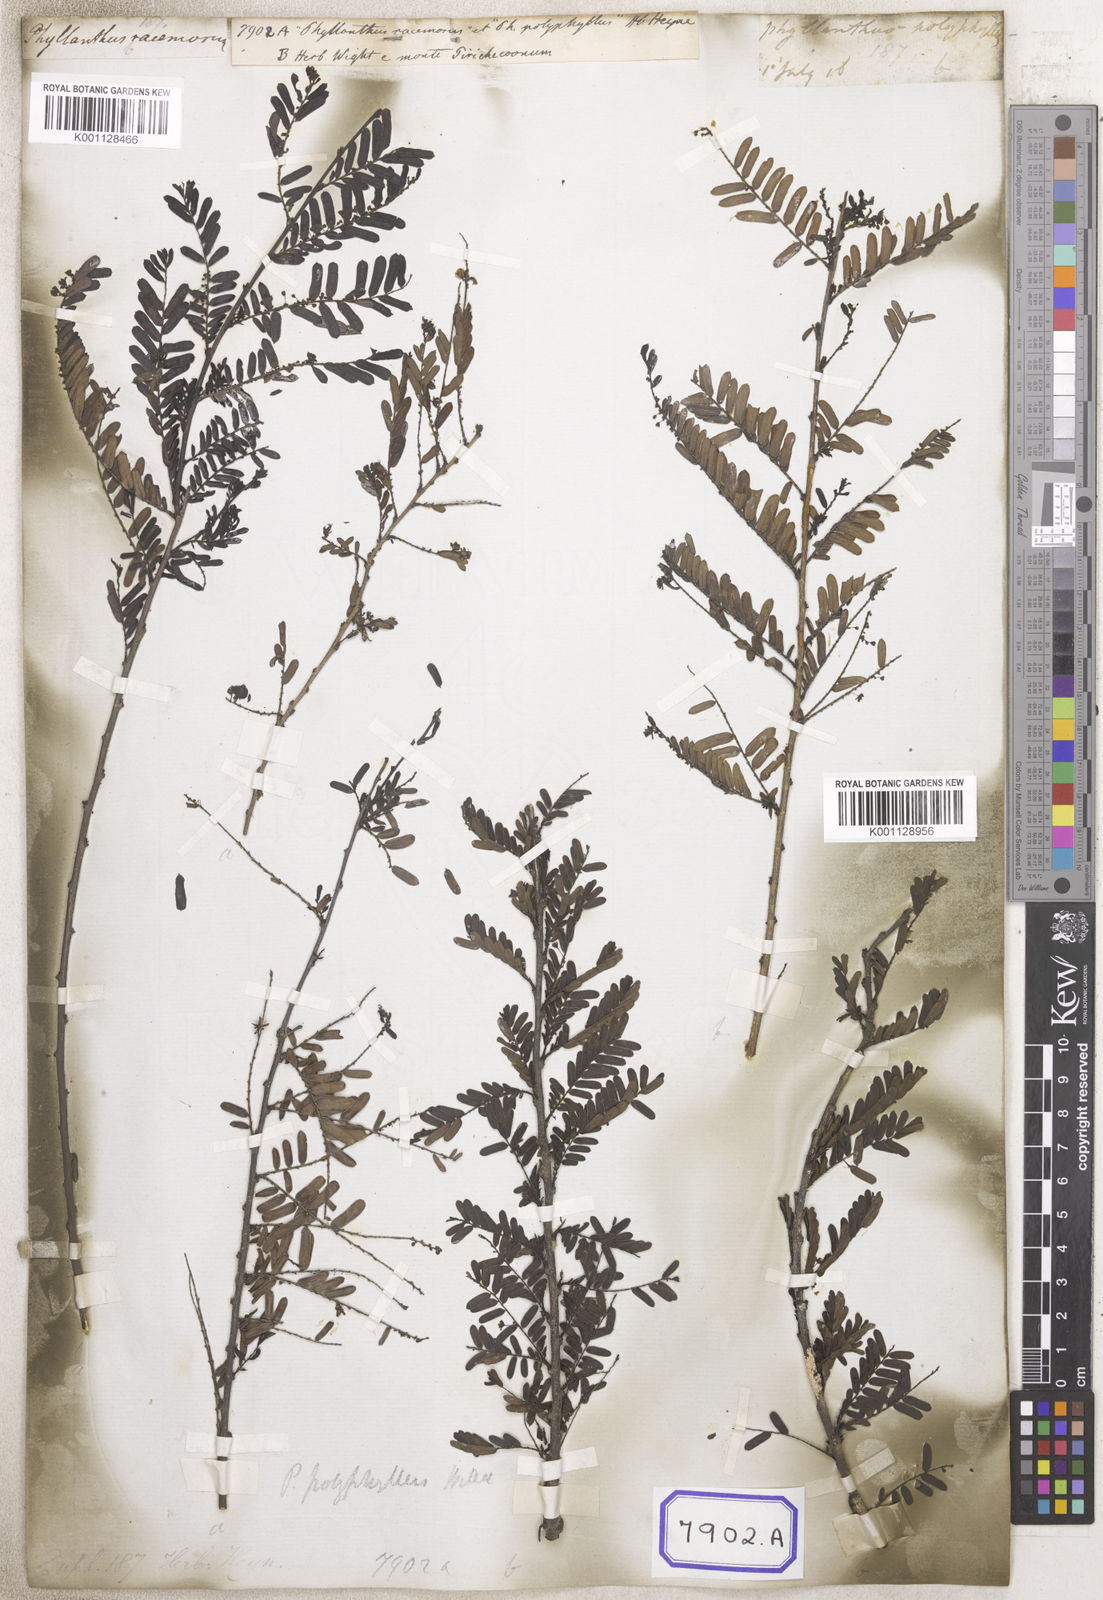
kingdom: Plantae
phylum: Tracheophyta
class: Magnoliopsida
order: Malpighiales
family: Euphorbiaceae
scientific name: Euphorbiaceae
